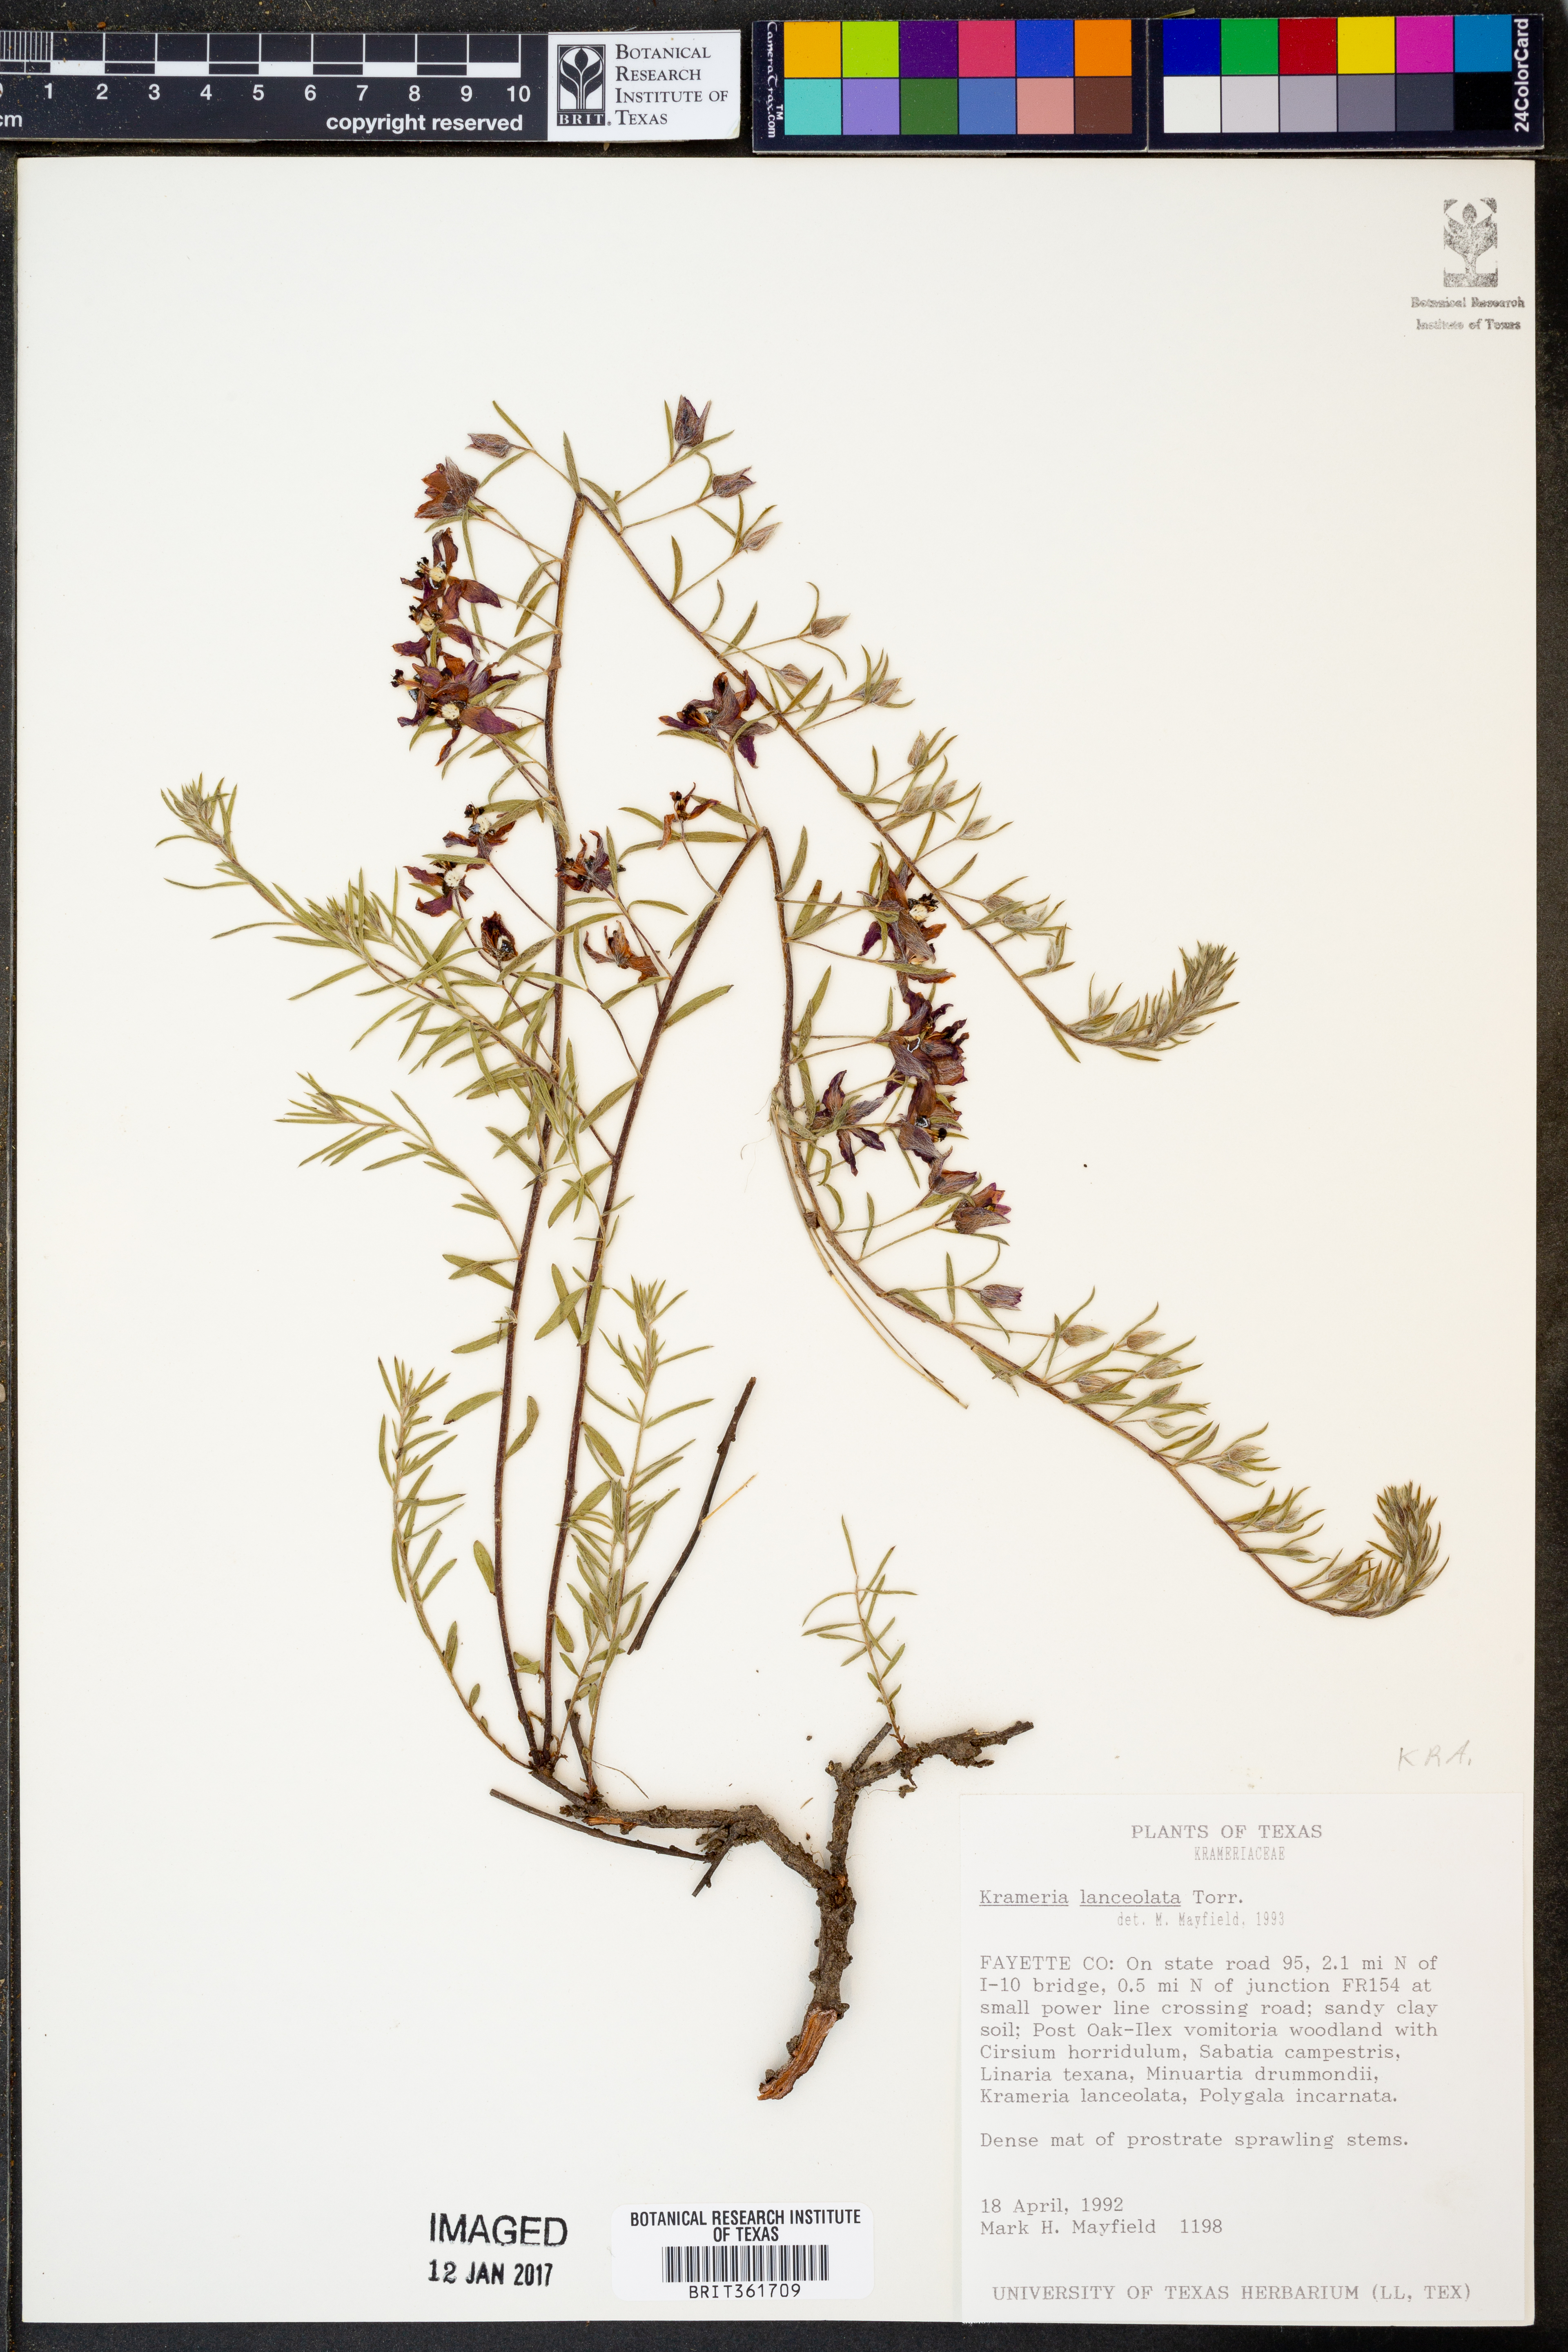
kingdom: Plantae
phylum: Tracheophyta
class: Magnoliopsida
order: Zygophyllales
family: Krameriaceae
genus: Krameria
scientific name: Krameria lanceolata
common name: Ratany
